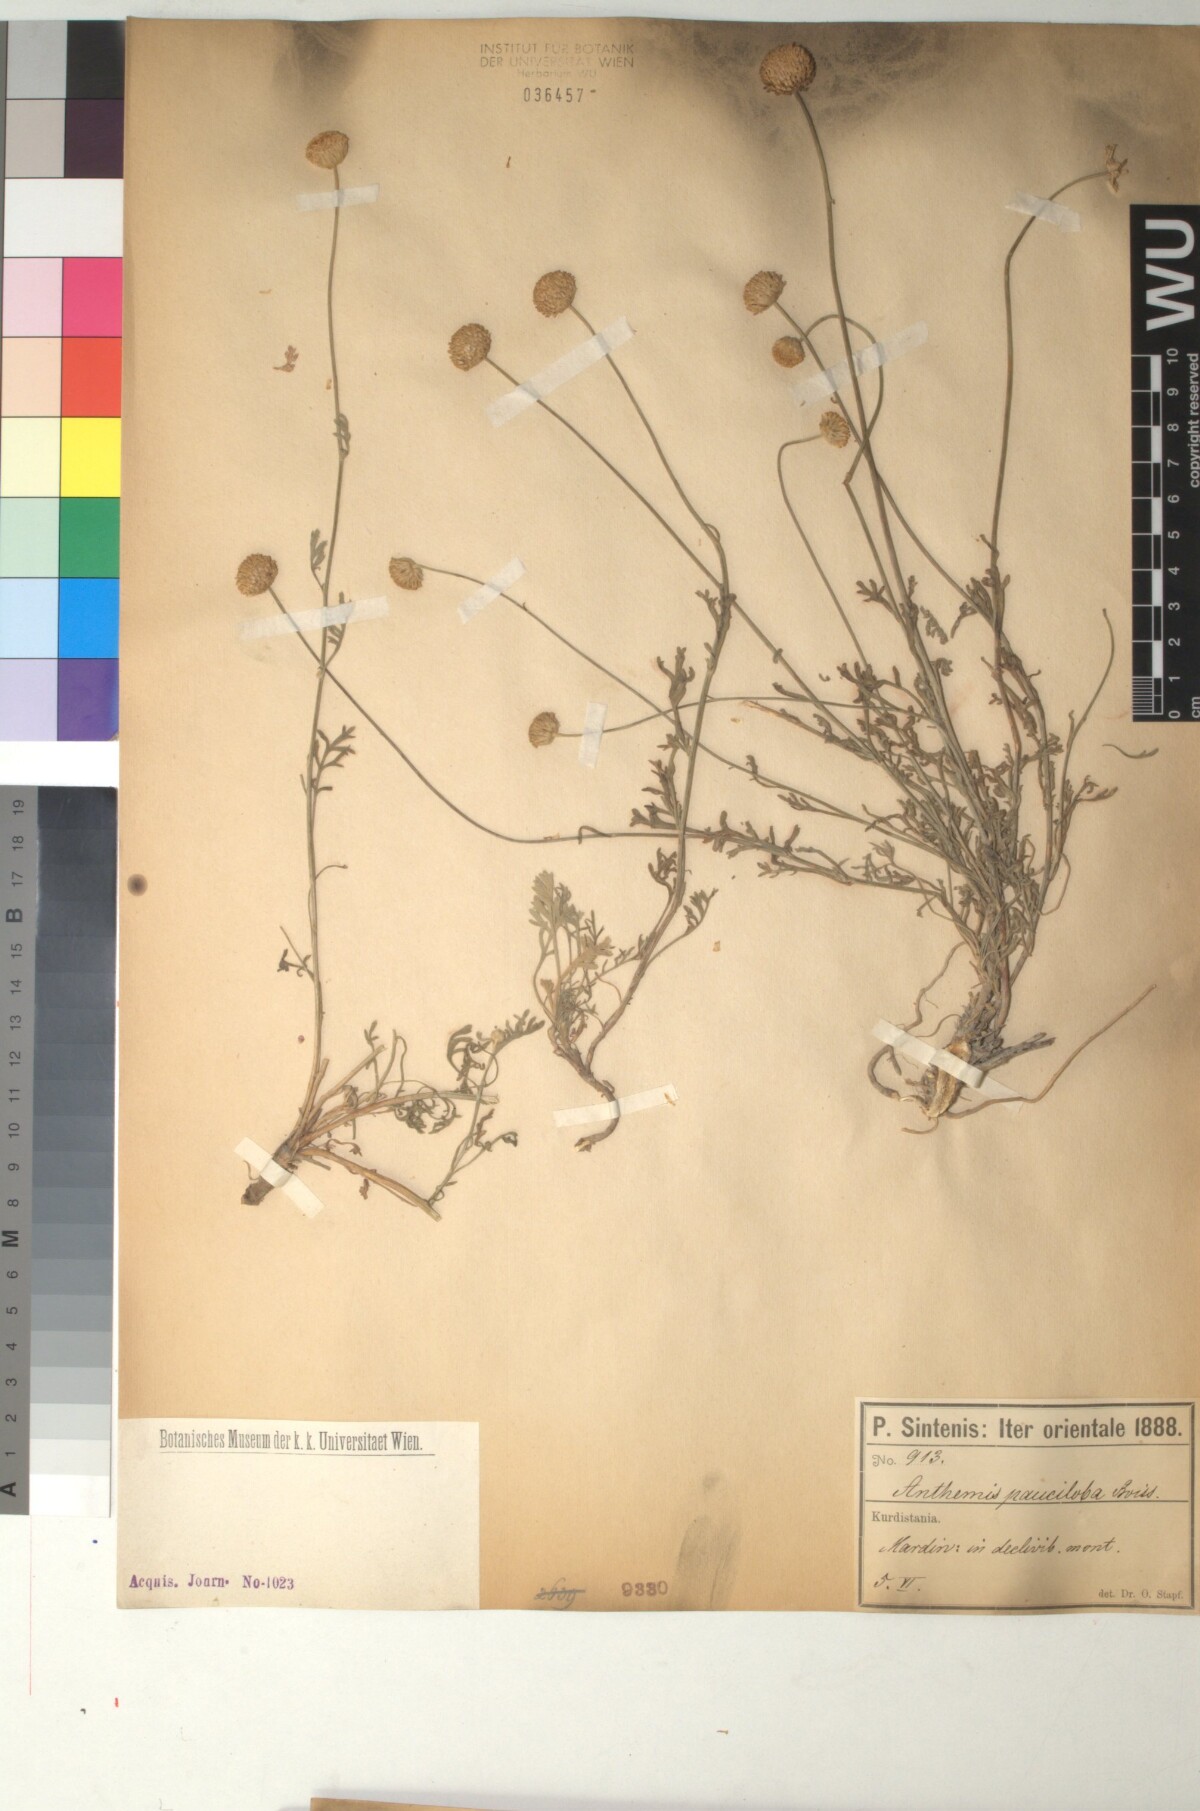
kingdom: Plantae
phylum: Tracheophyta
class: Magnoliopsida
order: Asterales
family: Asteraceae
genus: Anthemis
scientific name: Anthemis pauciloba
